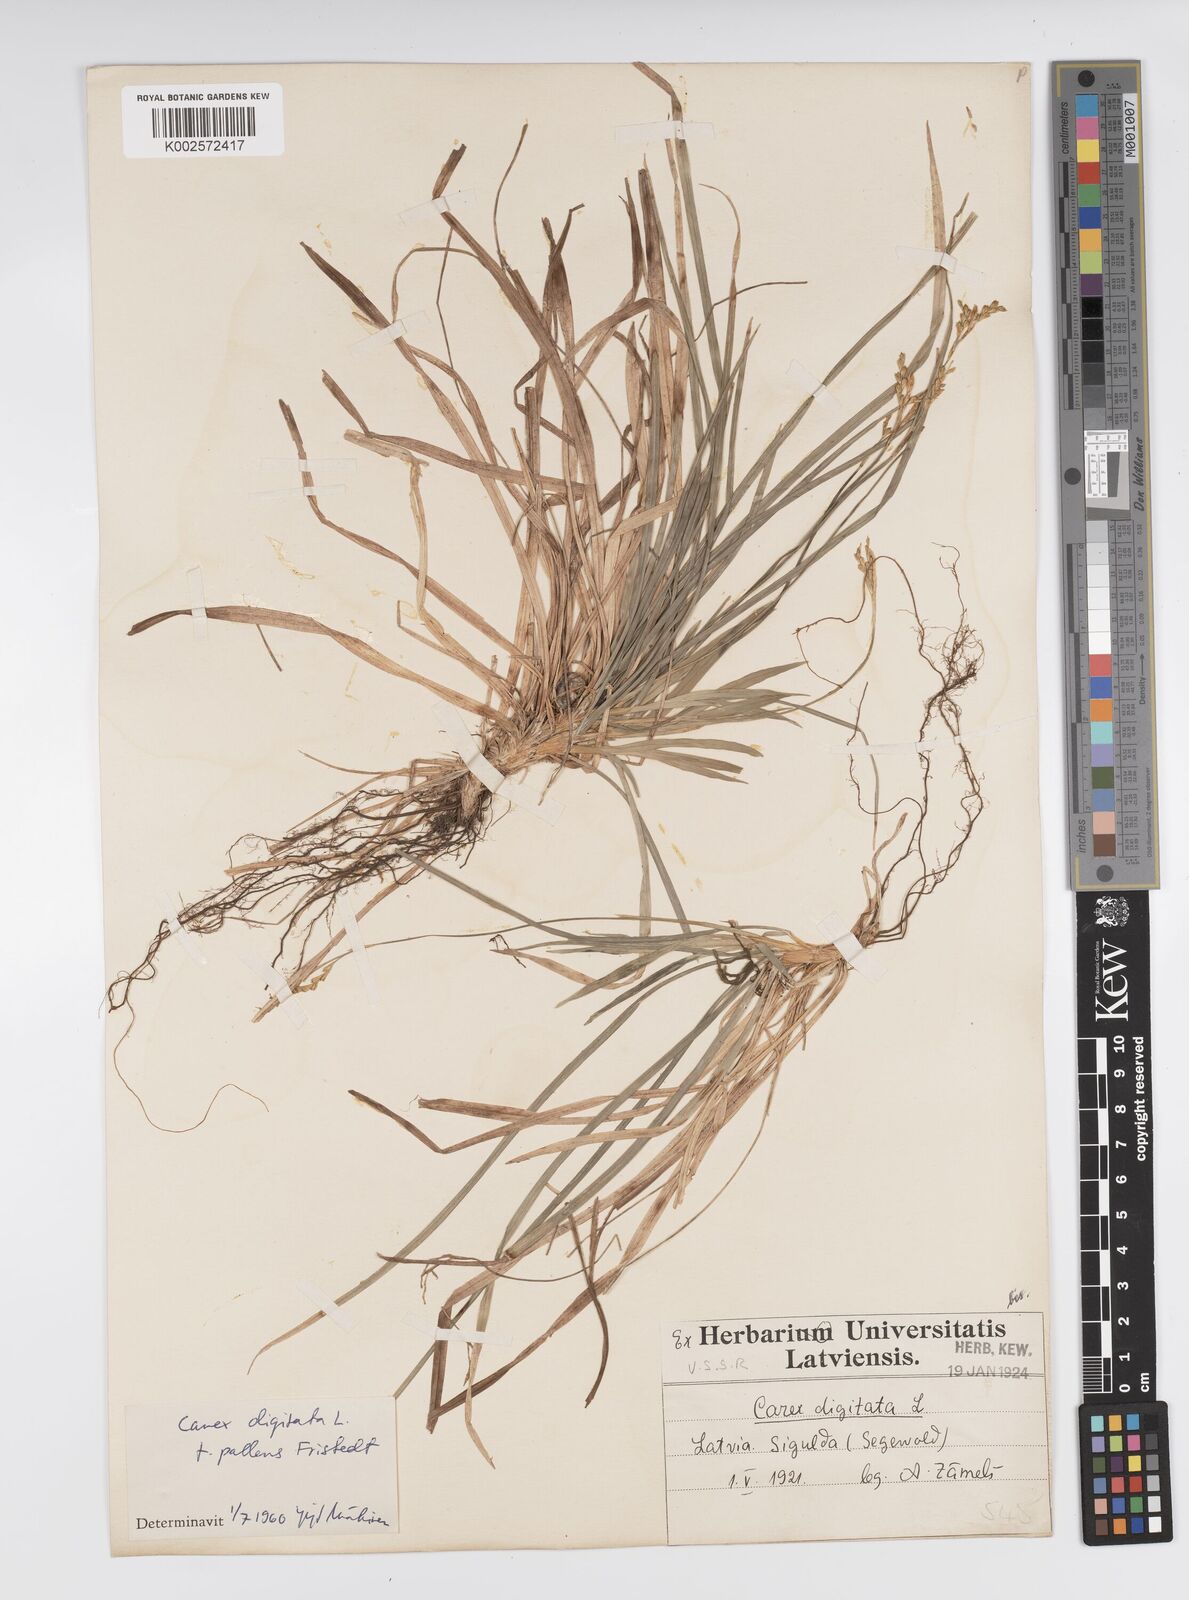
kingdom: Plantae
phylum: Tracheophyta
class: Liliopsida
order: Poales
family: Cyperaceae
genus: Carex
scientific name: Carex digitata
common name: Fingered sedge
